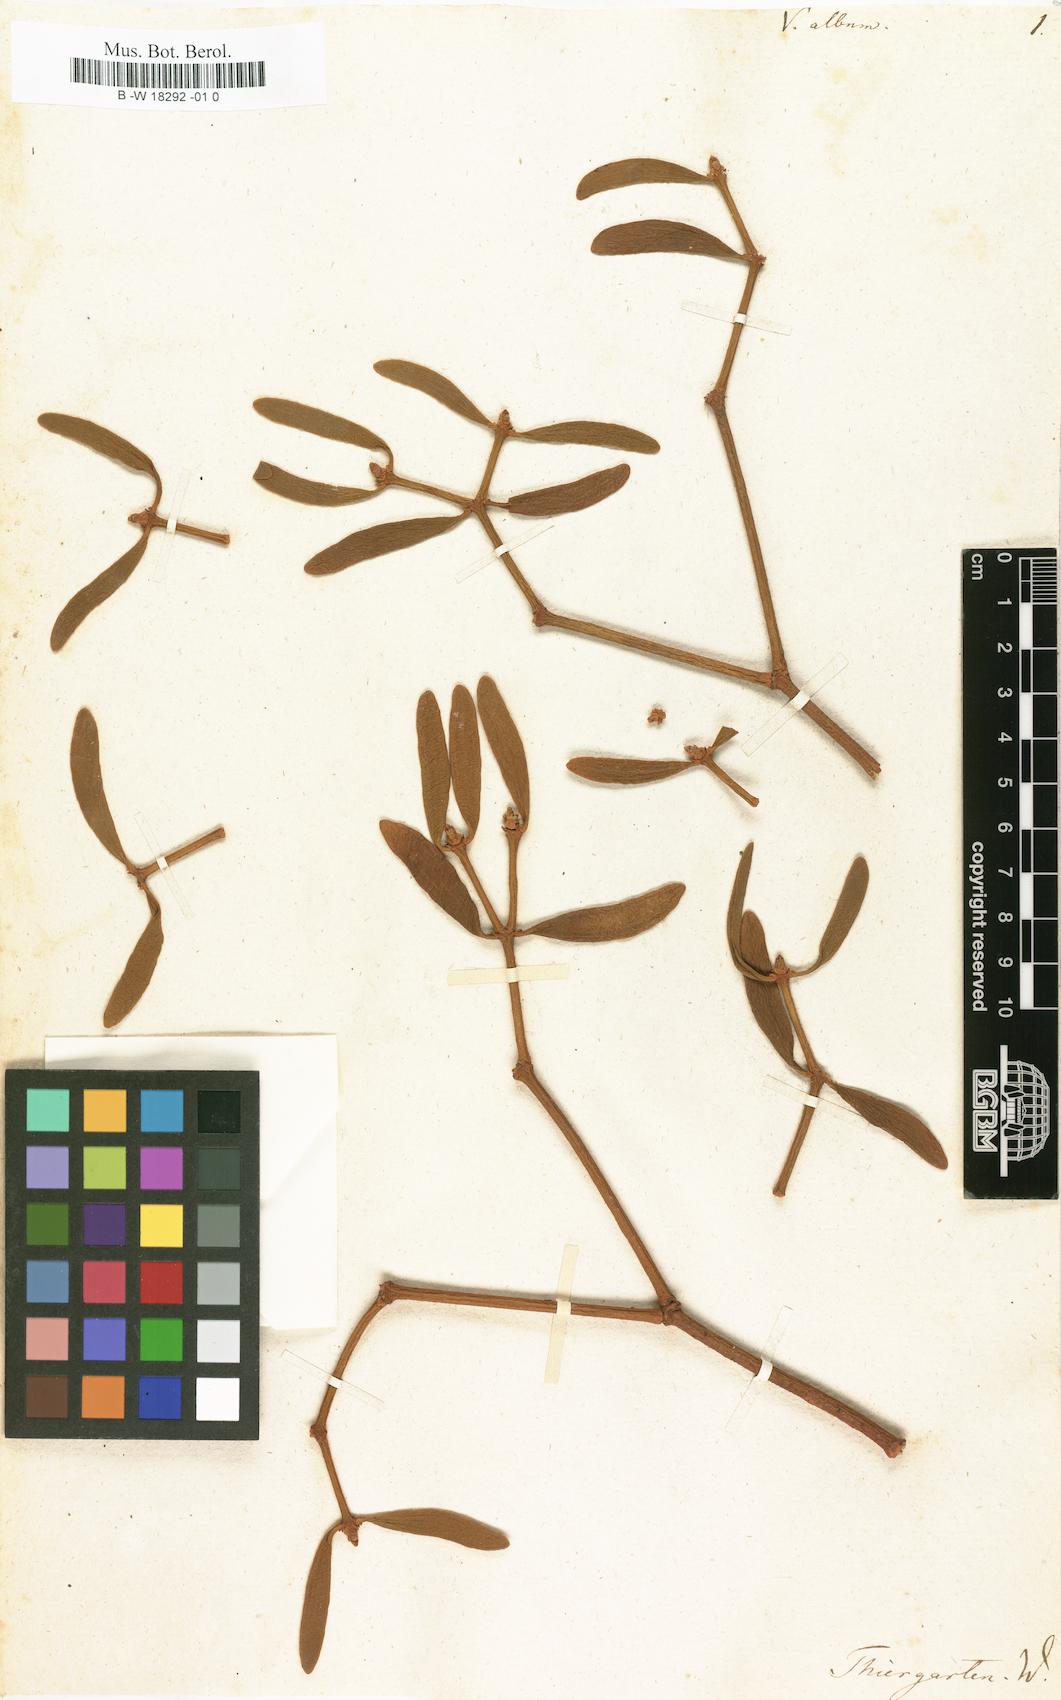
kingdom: Plantae
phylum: Tracheophyta
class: Magnoliopsida
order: Santalales
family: Viscaceae
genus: Viscum
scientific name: Viscum album
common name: Mistletoe
